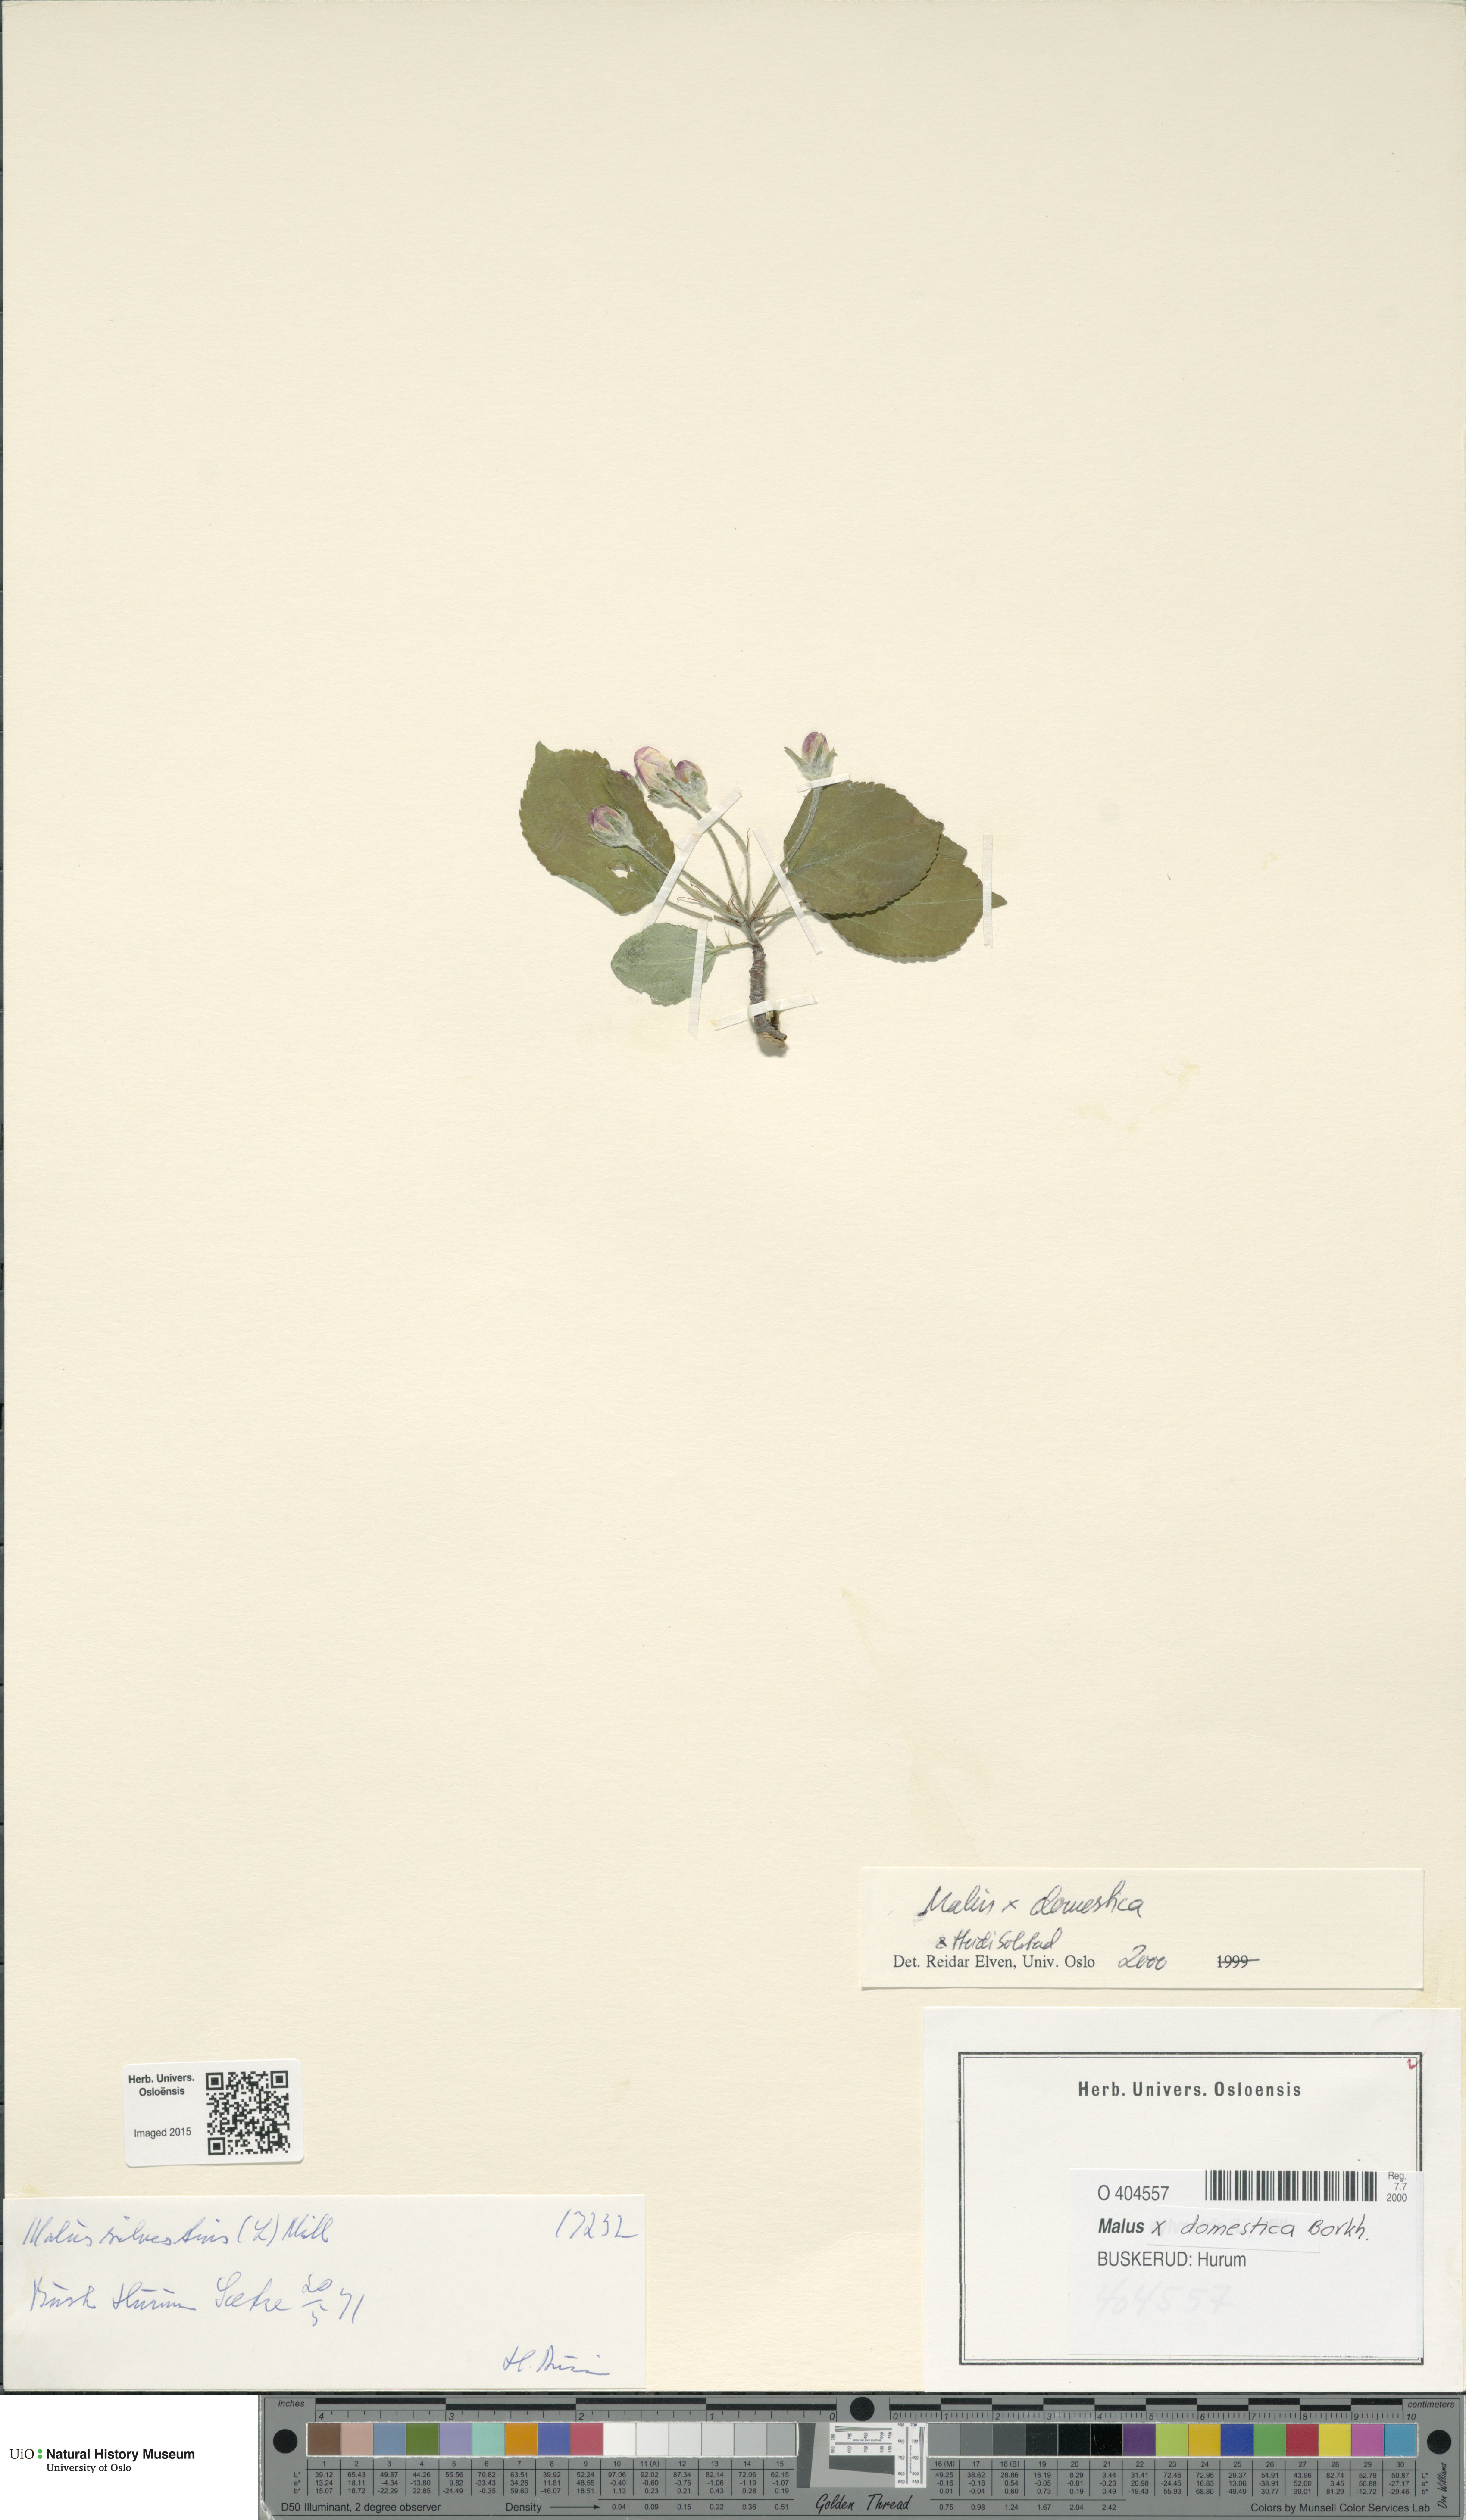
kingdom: Plantae
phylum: Tracheophyta
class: Magnoliopsida
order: Rosales
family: Rosaceae
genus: Malus
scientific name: Malus domestica
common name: Apple
